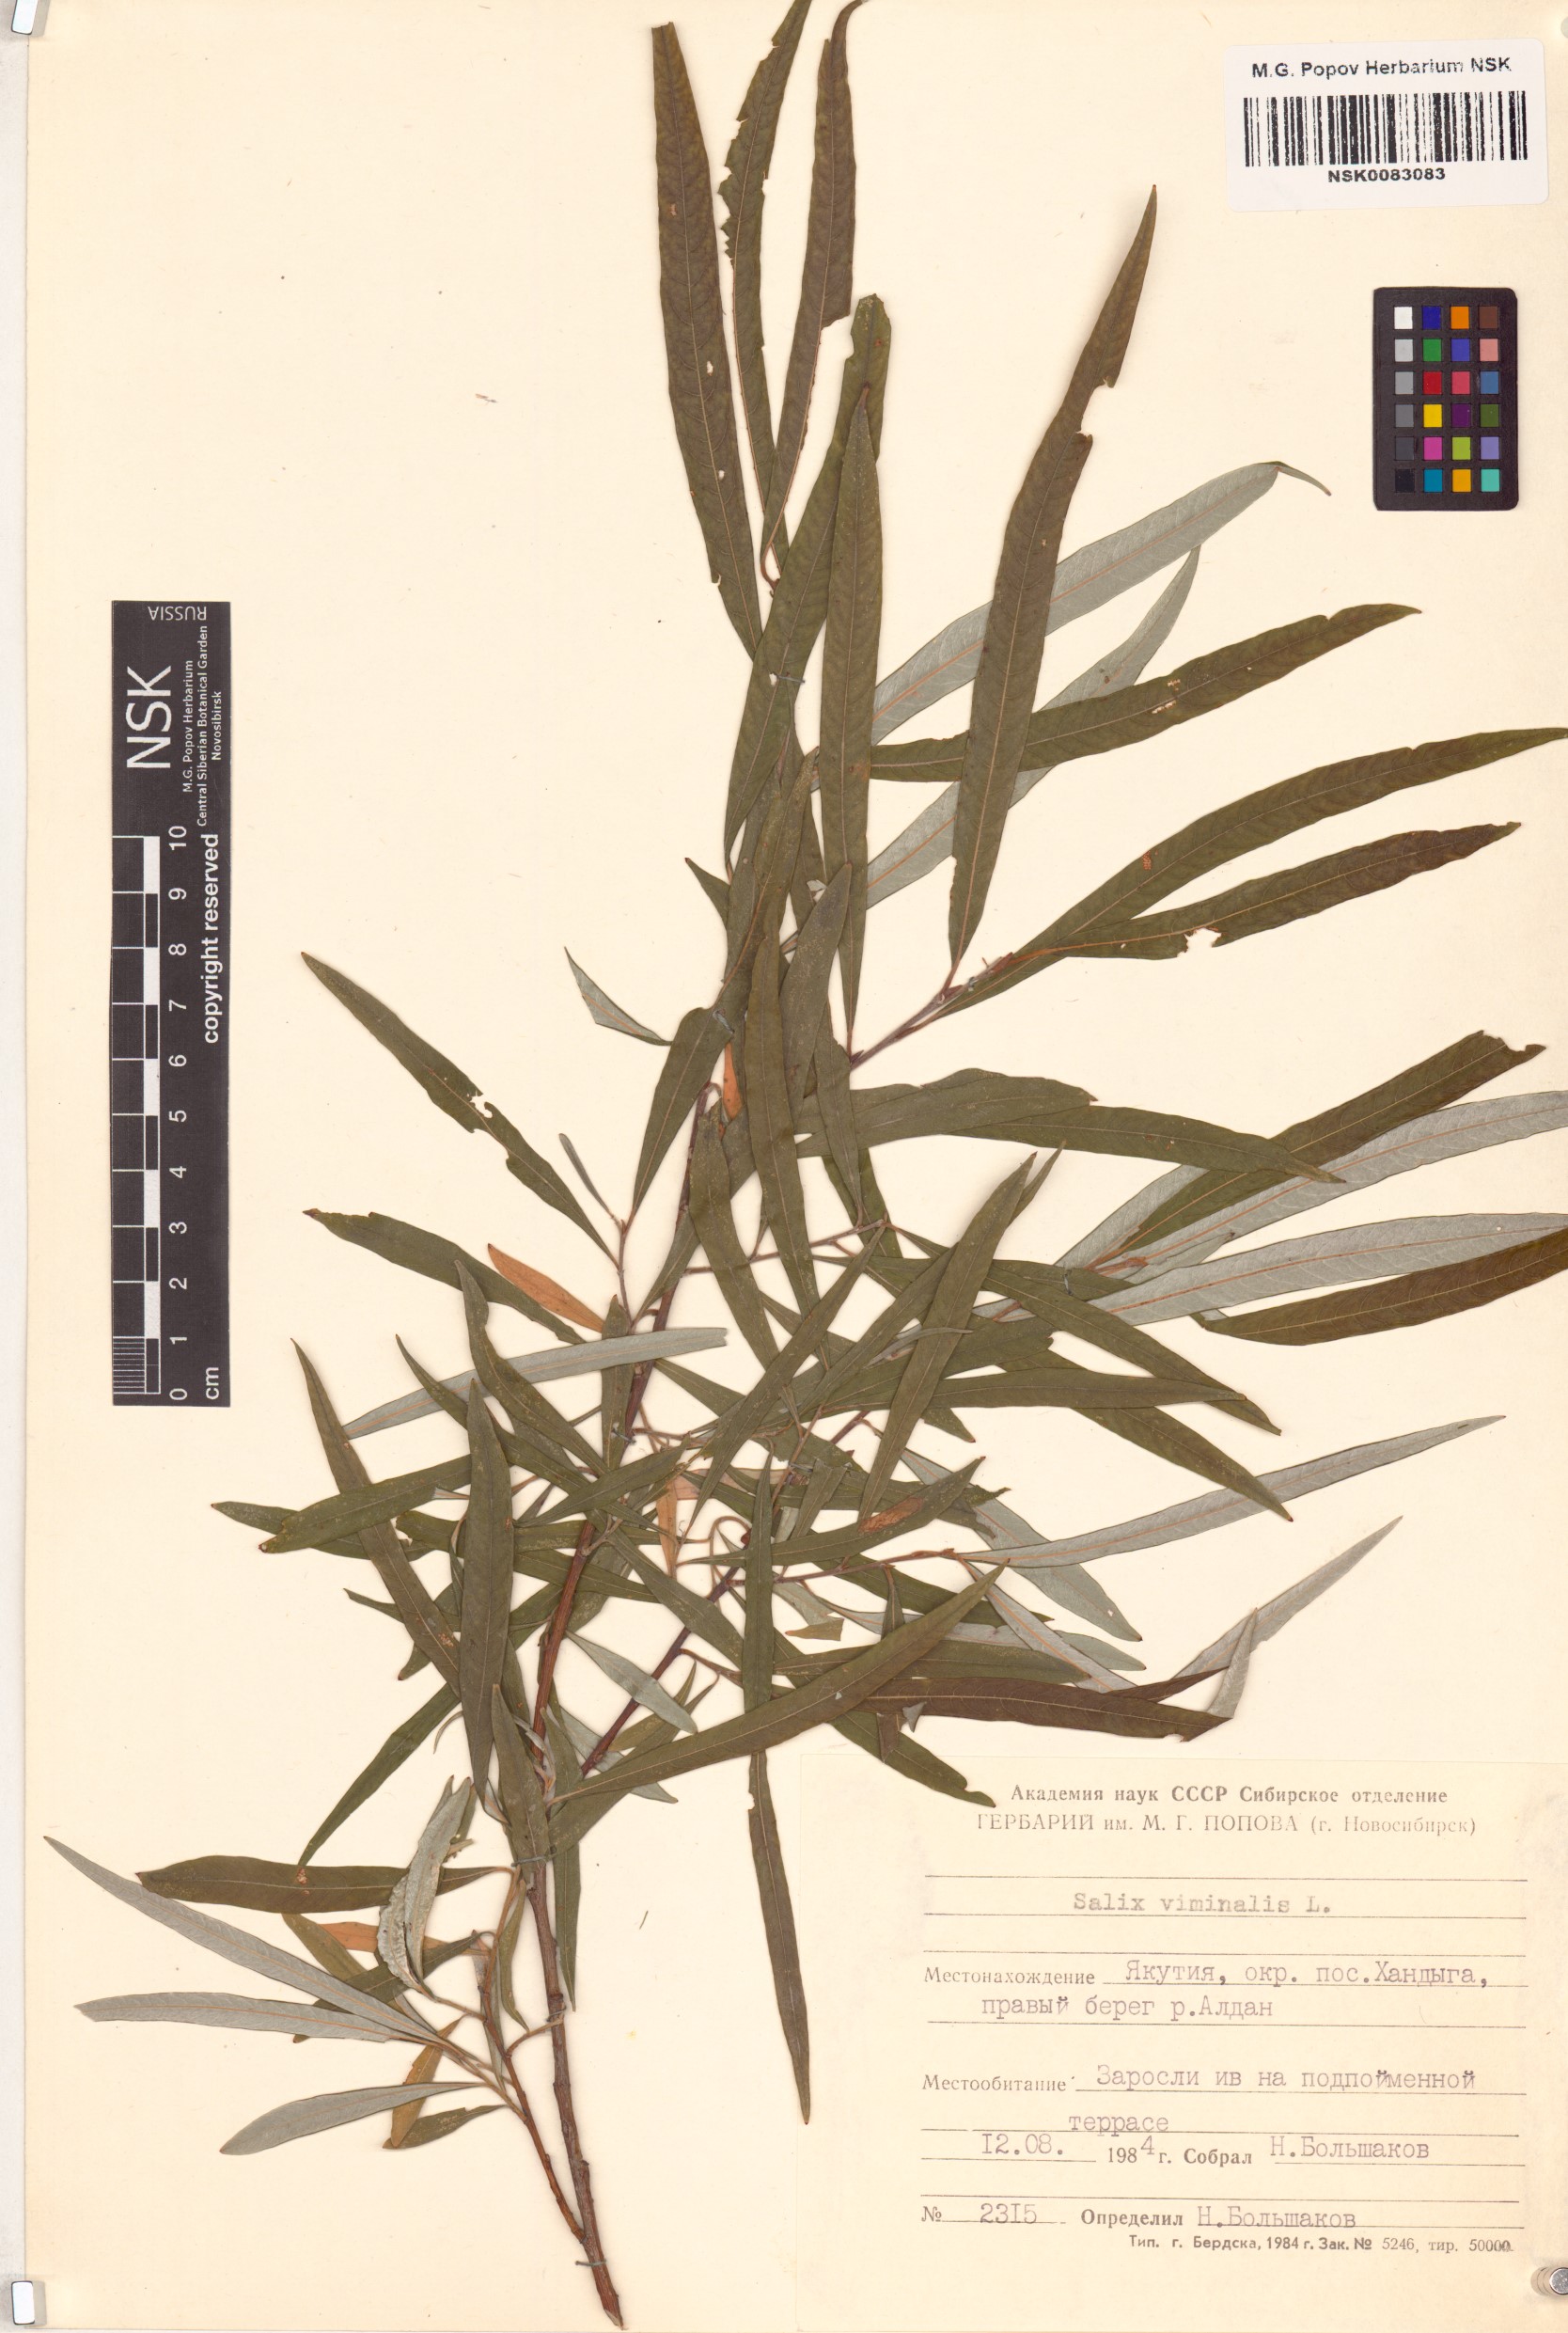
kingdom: Plantae
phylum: Tracheophyta
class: Magnoliopsida
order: Malpighiales
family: Salicaceae
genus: Salix
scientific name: Salix viminalis
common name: Osier
